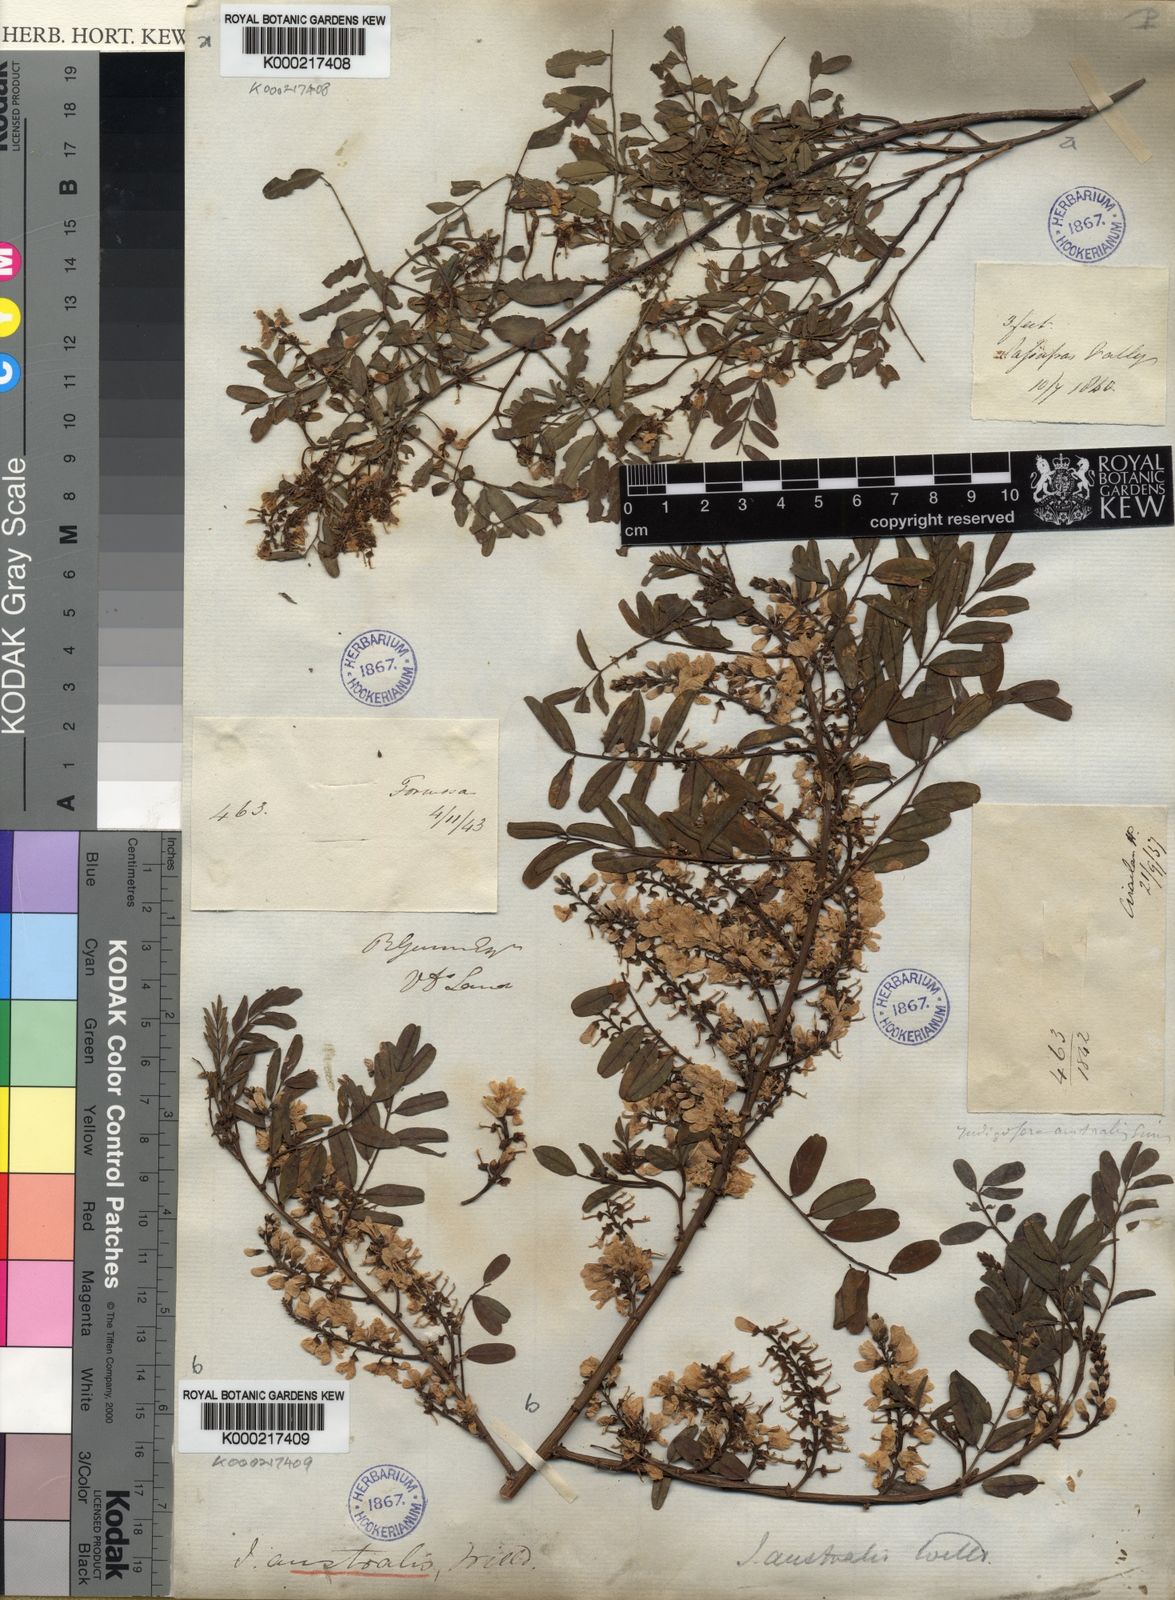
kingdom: Plantae
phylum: Tracheophyta
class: Magnoliopsida
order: Fabales
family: Fabaceae
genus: Indigofera
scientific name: Indigofera australis
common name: Australian indigo
